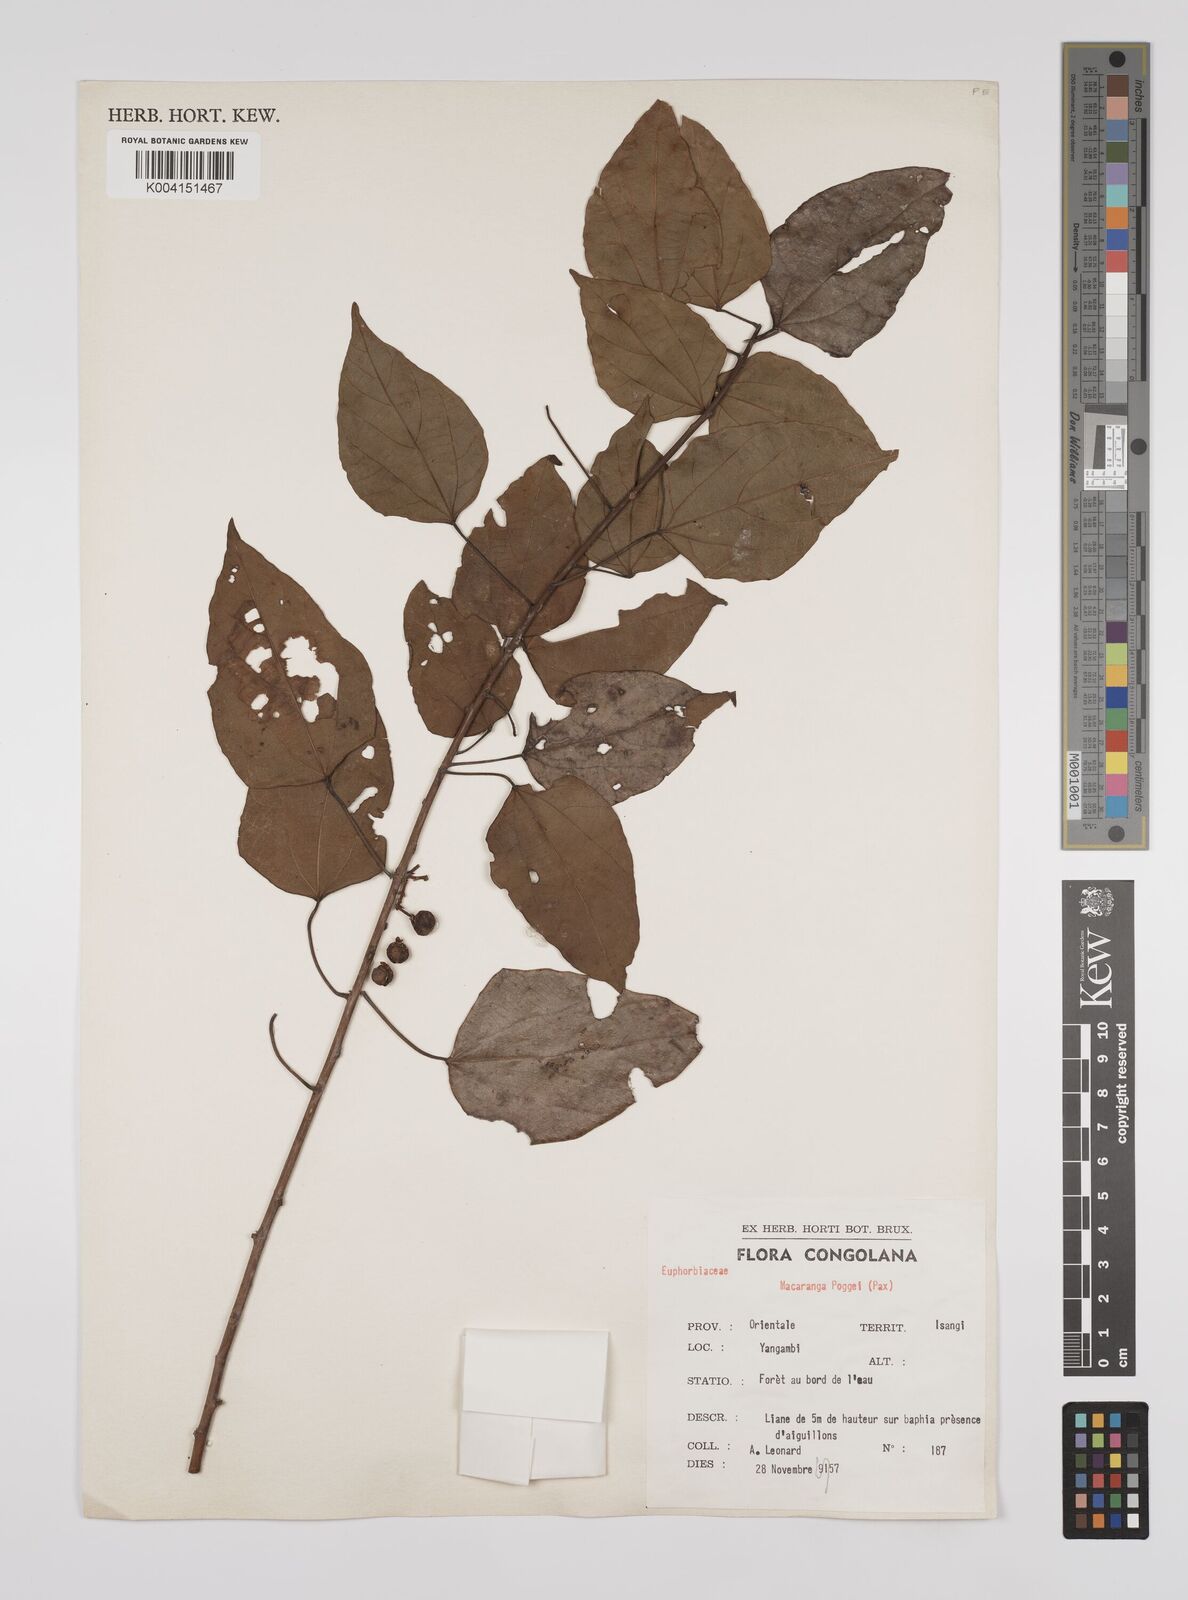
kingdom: Plantae
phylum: Tracheophyta
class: Magnoliopsida
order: Malpighiales
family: Euphorbiaceae
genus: Macaranga
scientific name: Macaranga poggei
